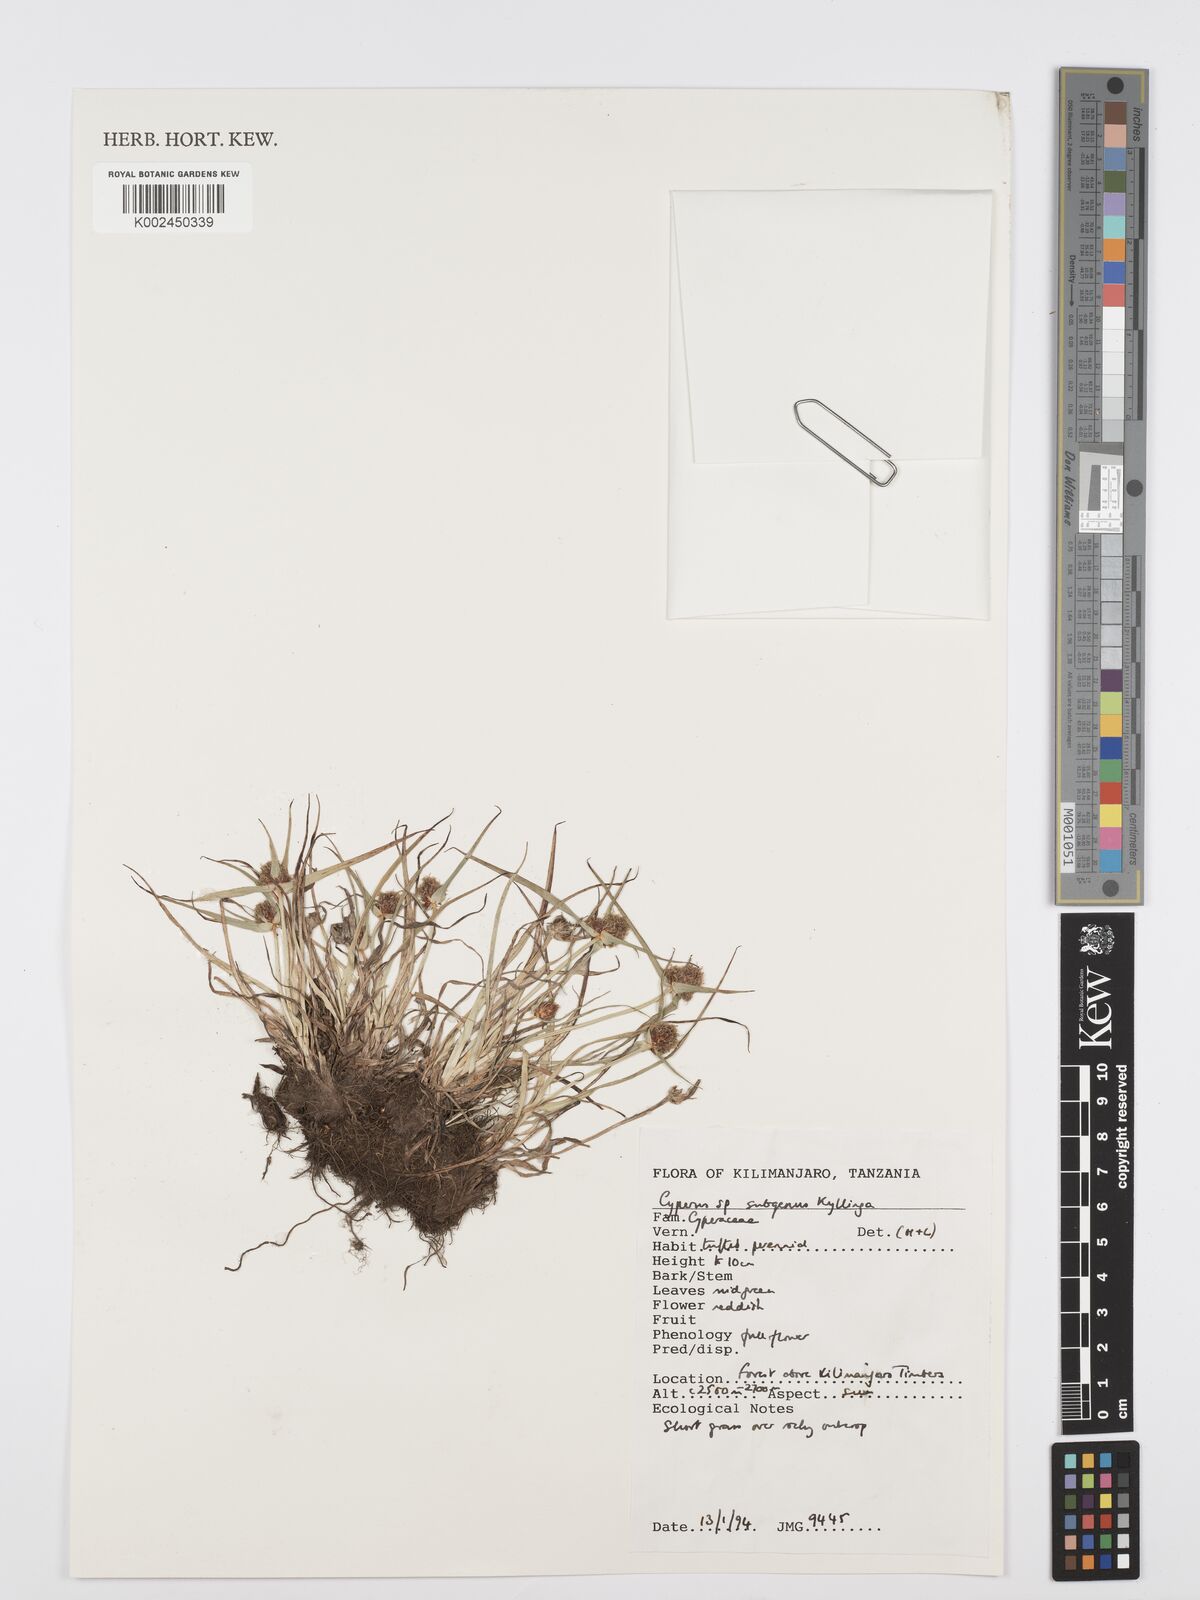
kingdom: Plantae
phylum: Tracheophyta
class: Liliopsida
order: Poales
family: Cyperaceae
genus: Cyperus
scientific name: Cyperus
